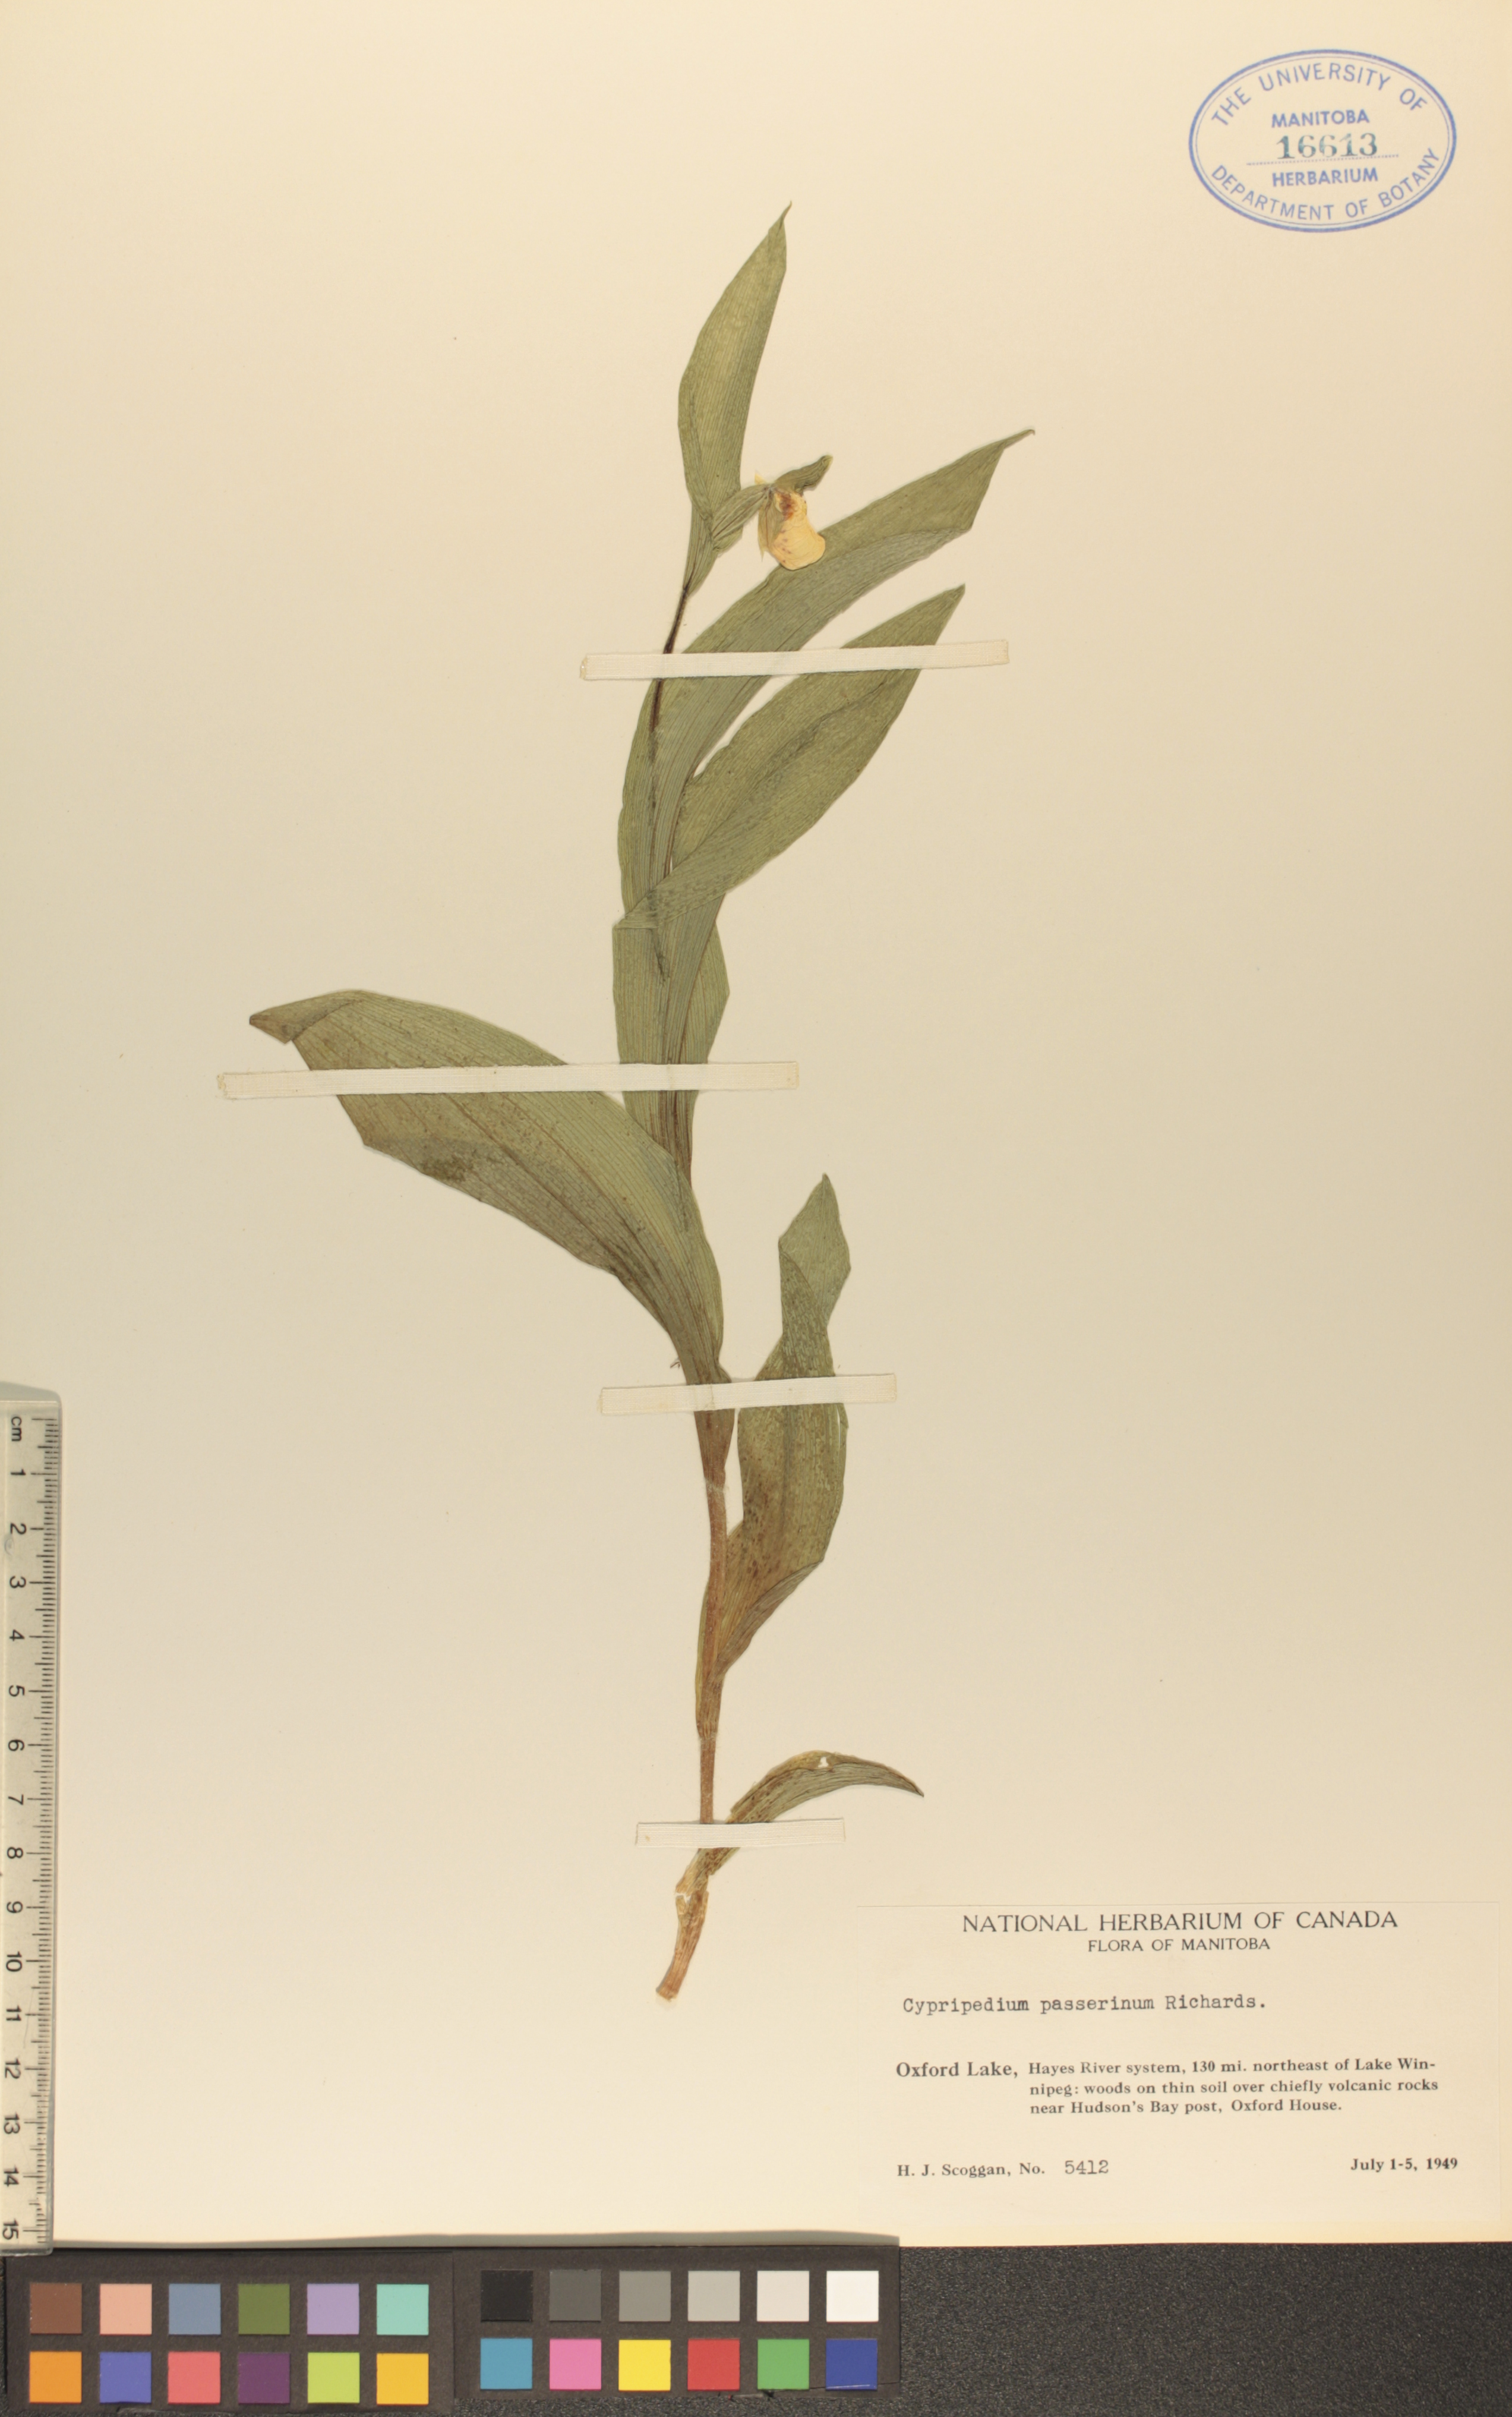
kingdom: Plantae
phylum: Tracheophyta
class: Liliopsida
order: Asparagales
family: Orchidaceae
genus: Cypripedium
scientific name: Cypripedium passerinum
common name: Sparrow's-egg lady's-slipper
